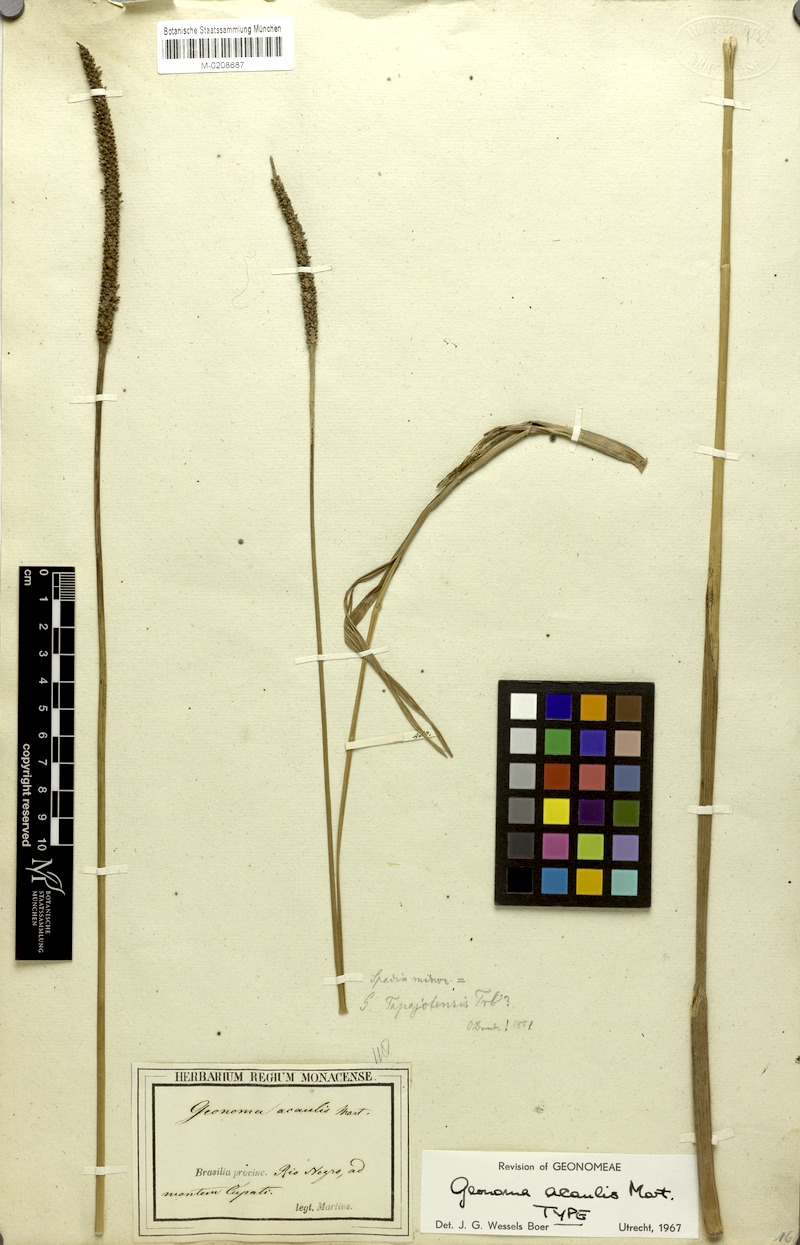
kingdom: Plantae
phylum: Tracheophyta
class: Liliopsida
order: Arecales
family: Arecaceae
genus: Geonoma
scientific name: Geonoma macrostachys
